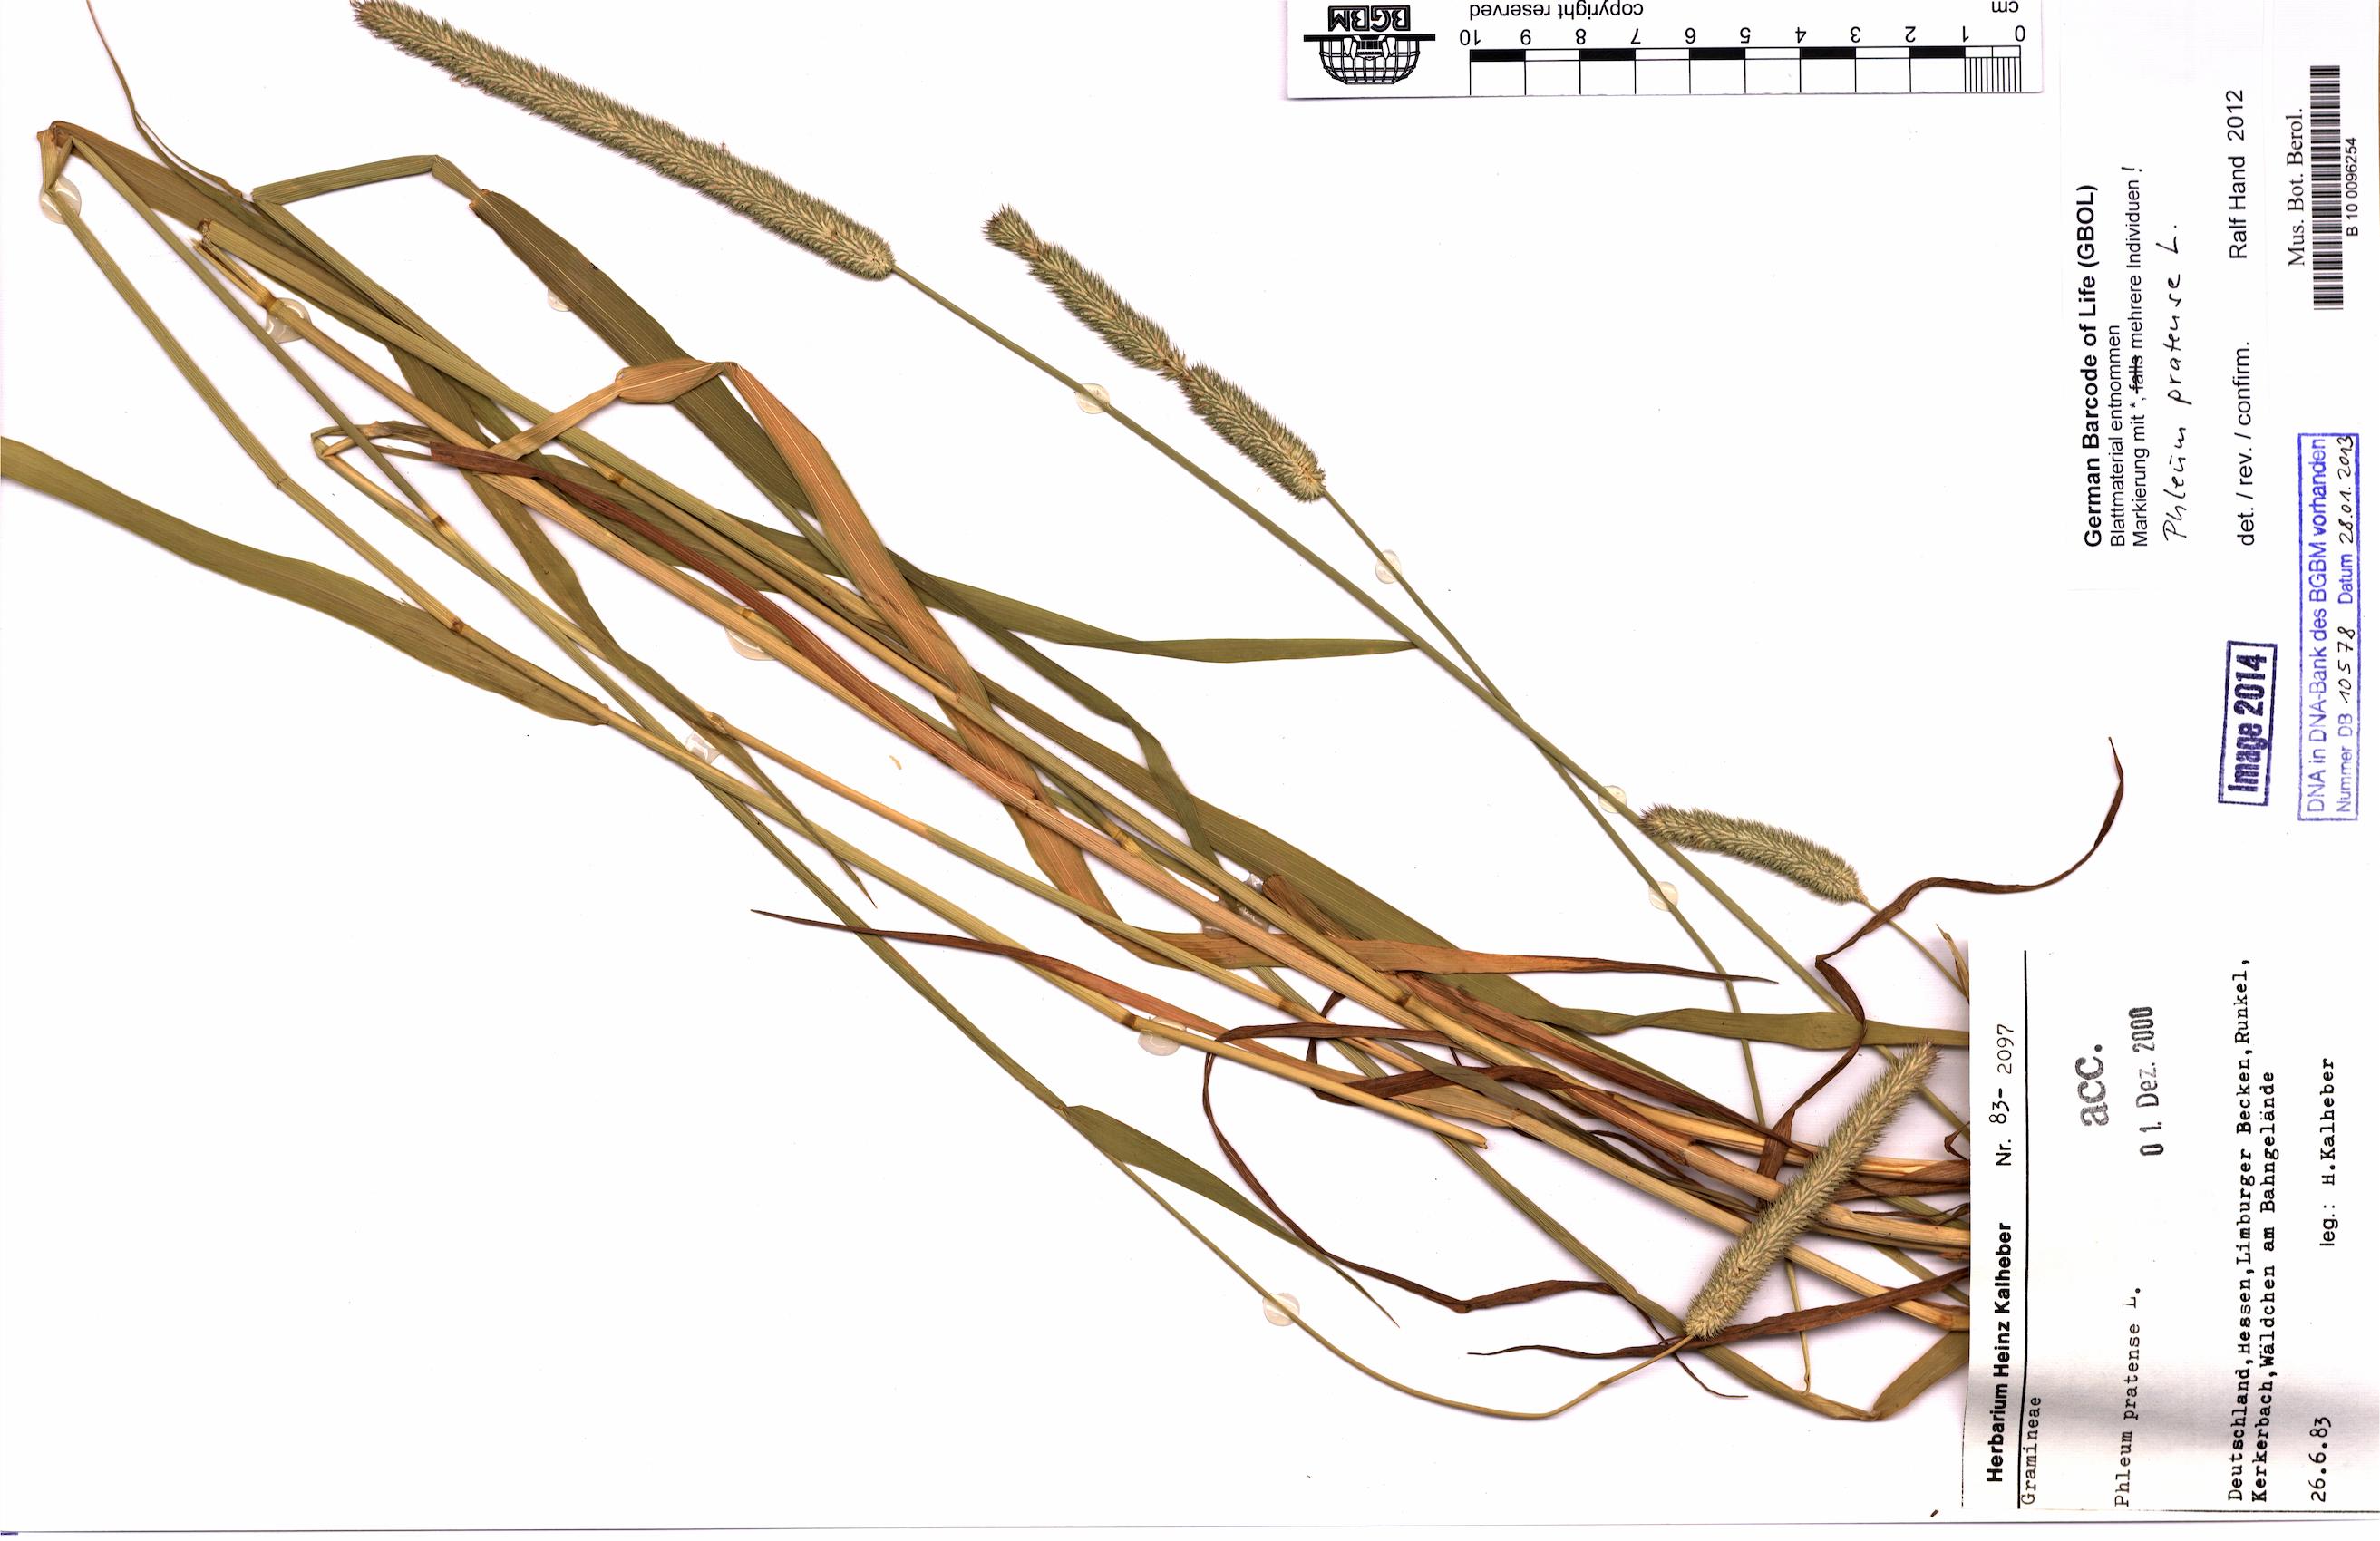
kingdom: Plantae
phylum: Tracheophyta
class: Liliopsida
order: Poales
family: Poaceae
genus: Phleum
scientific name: Phleum pratense
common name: Timothy grass
